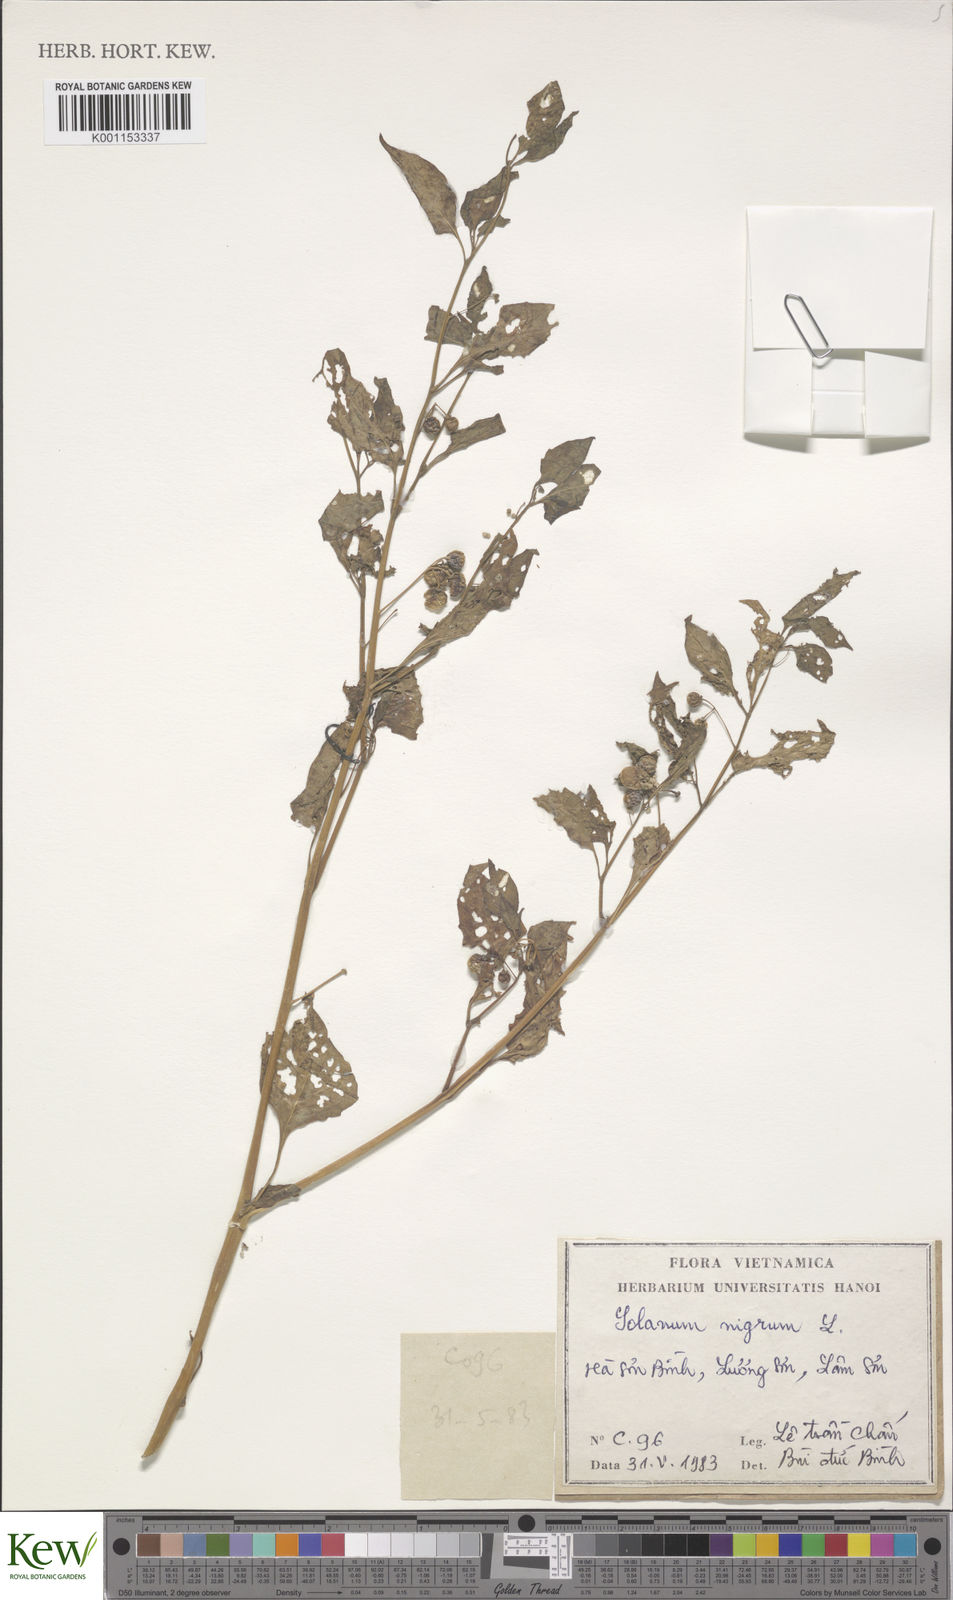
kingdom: Plantae
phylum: Tracheophyta
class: Magnoliopsida
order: Solanales
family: Solanaceae
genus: Solanum
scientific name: Solanum americanum
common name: American black nightshade
